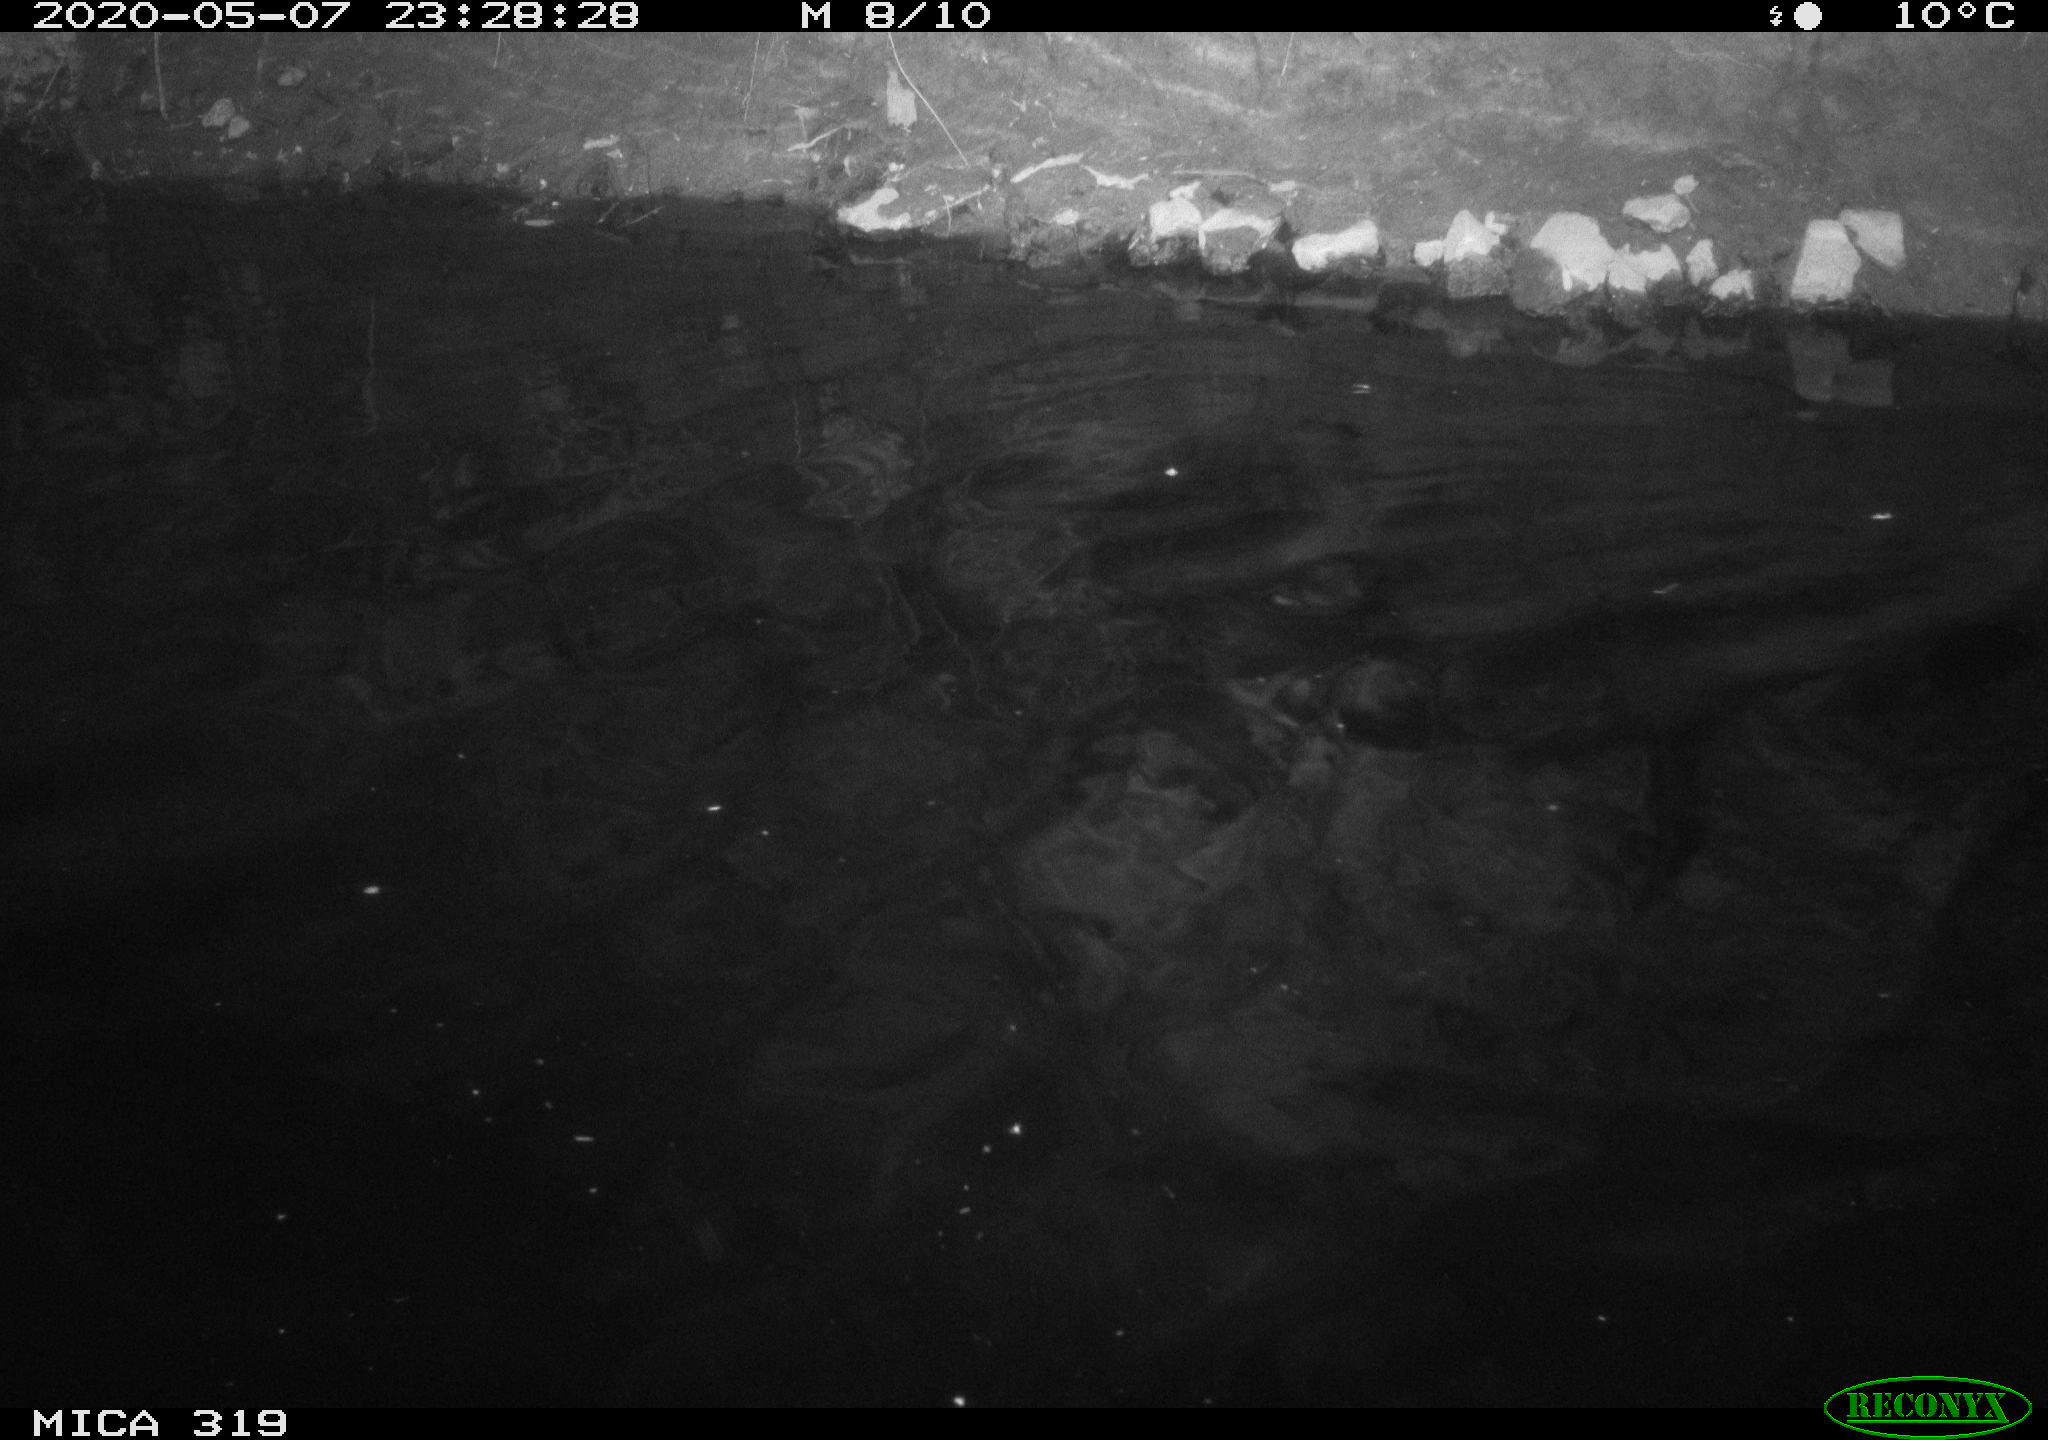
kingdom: Animalia
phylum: Chordata
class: Aves
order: Anseriformes
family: Anatidae
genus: Anas
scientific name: Anas platyrhynchos
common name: Mallard
